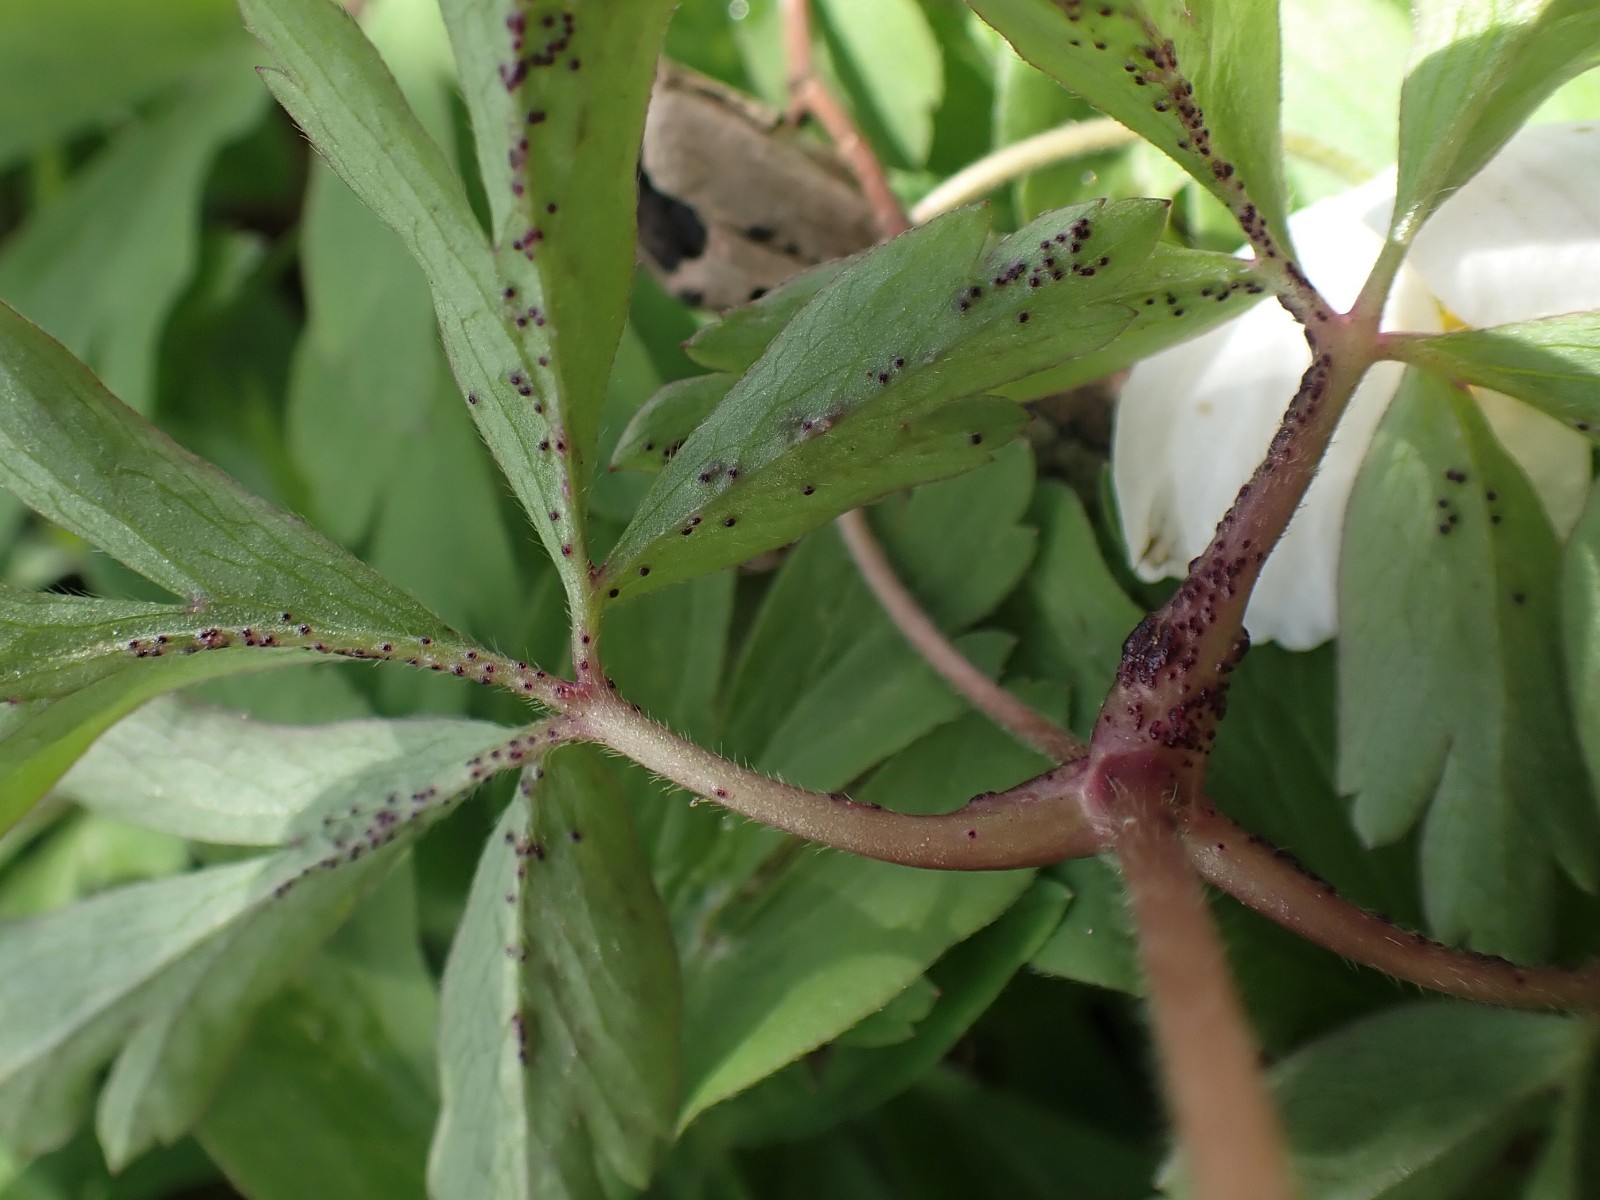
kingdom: Fungi
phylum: Chytridiomycota
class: Chytridiomycetes
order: Chytridiales
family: Synchytriaceae
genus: Synchytrium
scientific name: Synchytrium anemones
